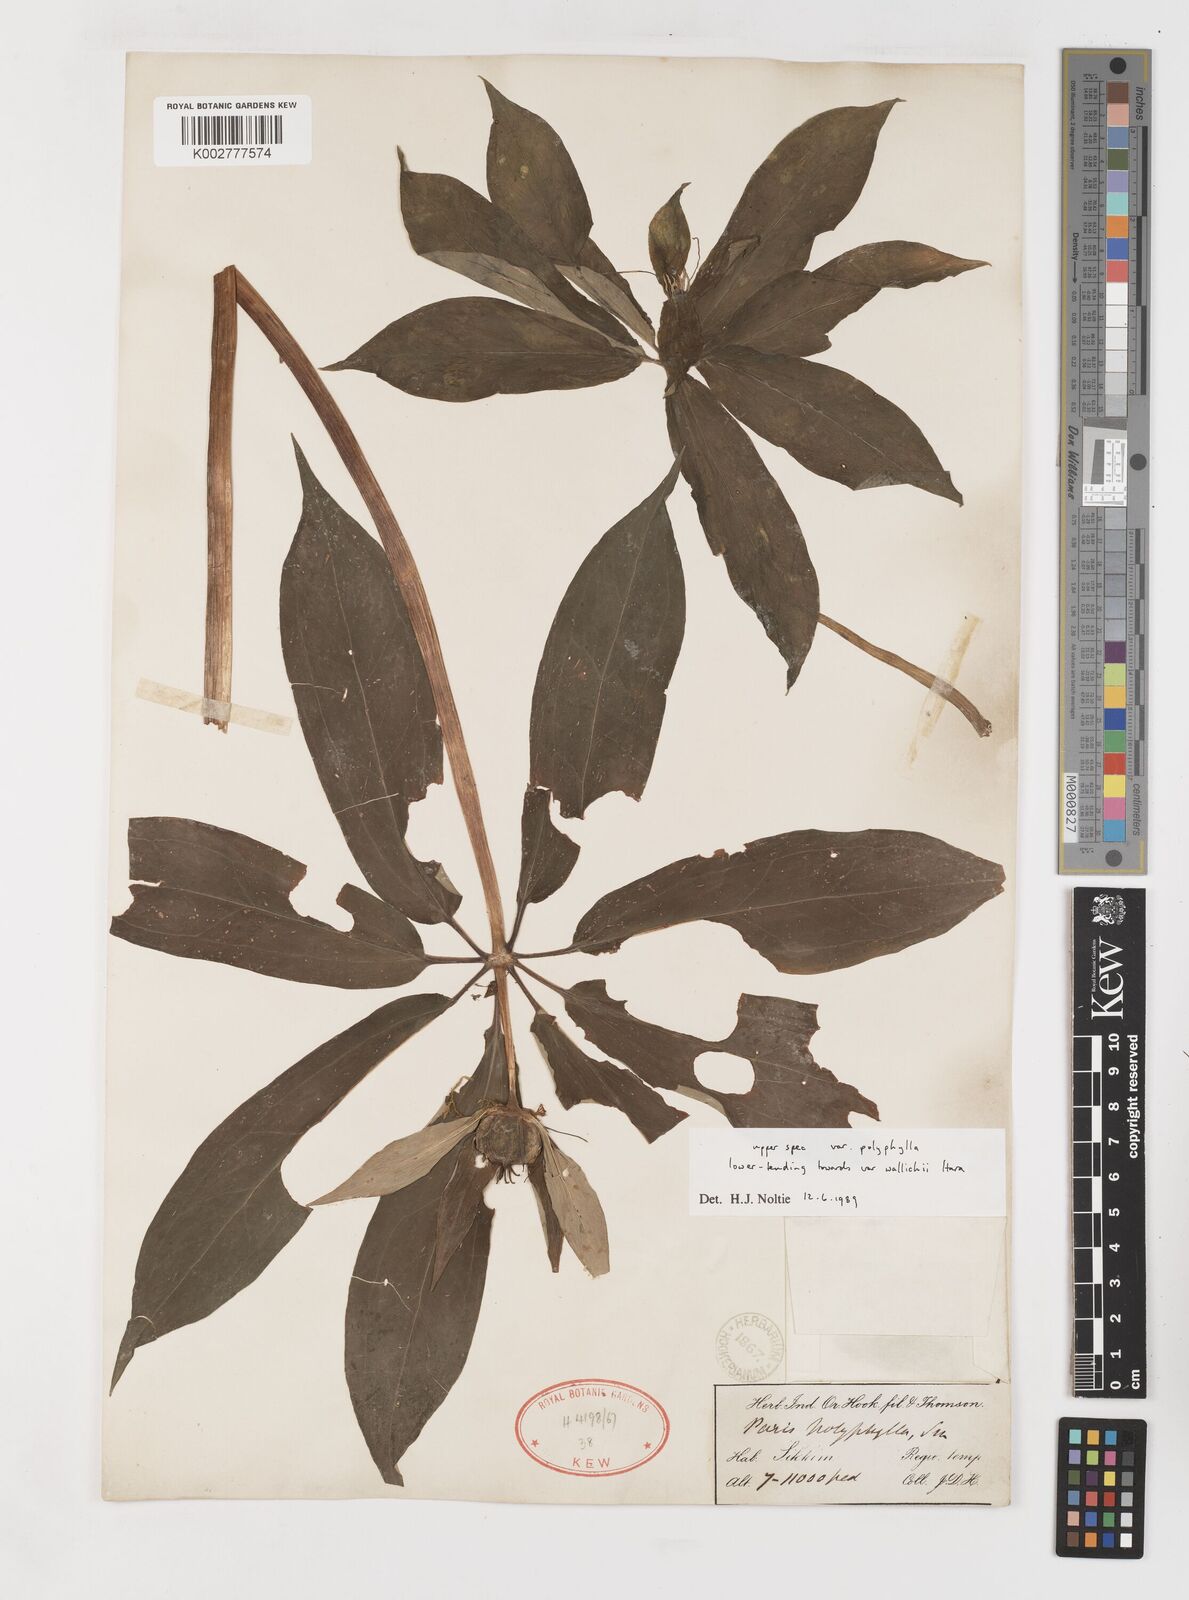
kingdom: Plantae
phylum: Tracheophyta
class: Liliopsida
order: Liliales
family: Melanthiaceae
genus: Paris
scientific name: Paris delavayi
